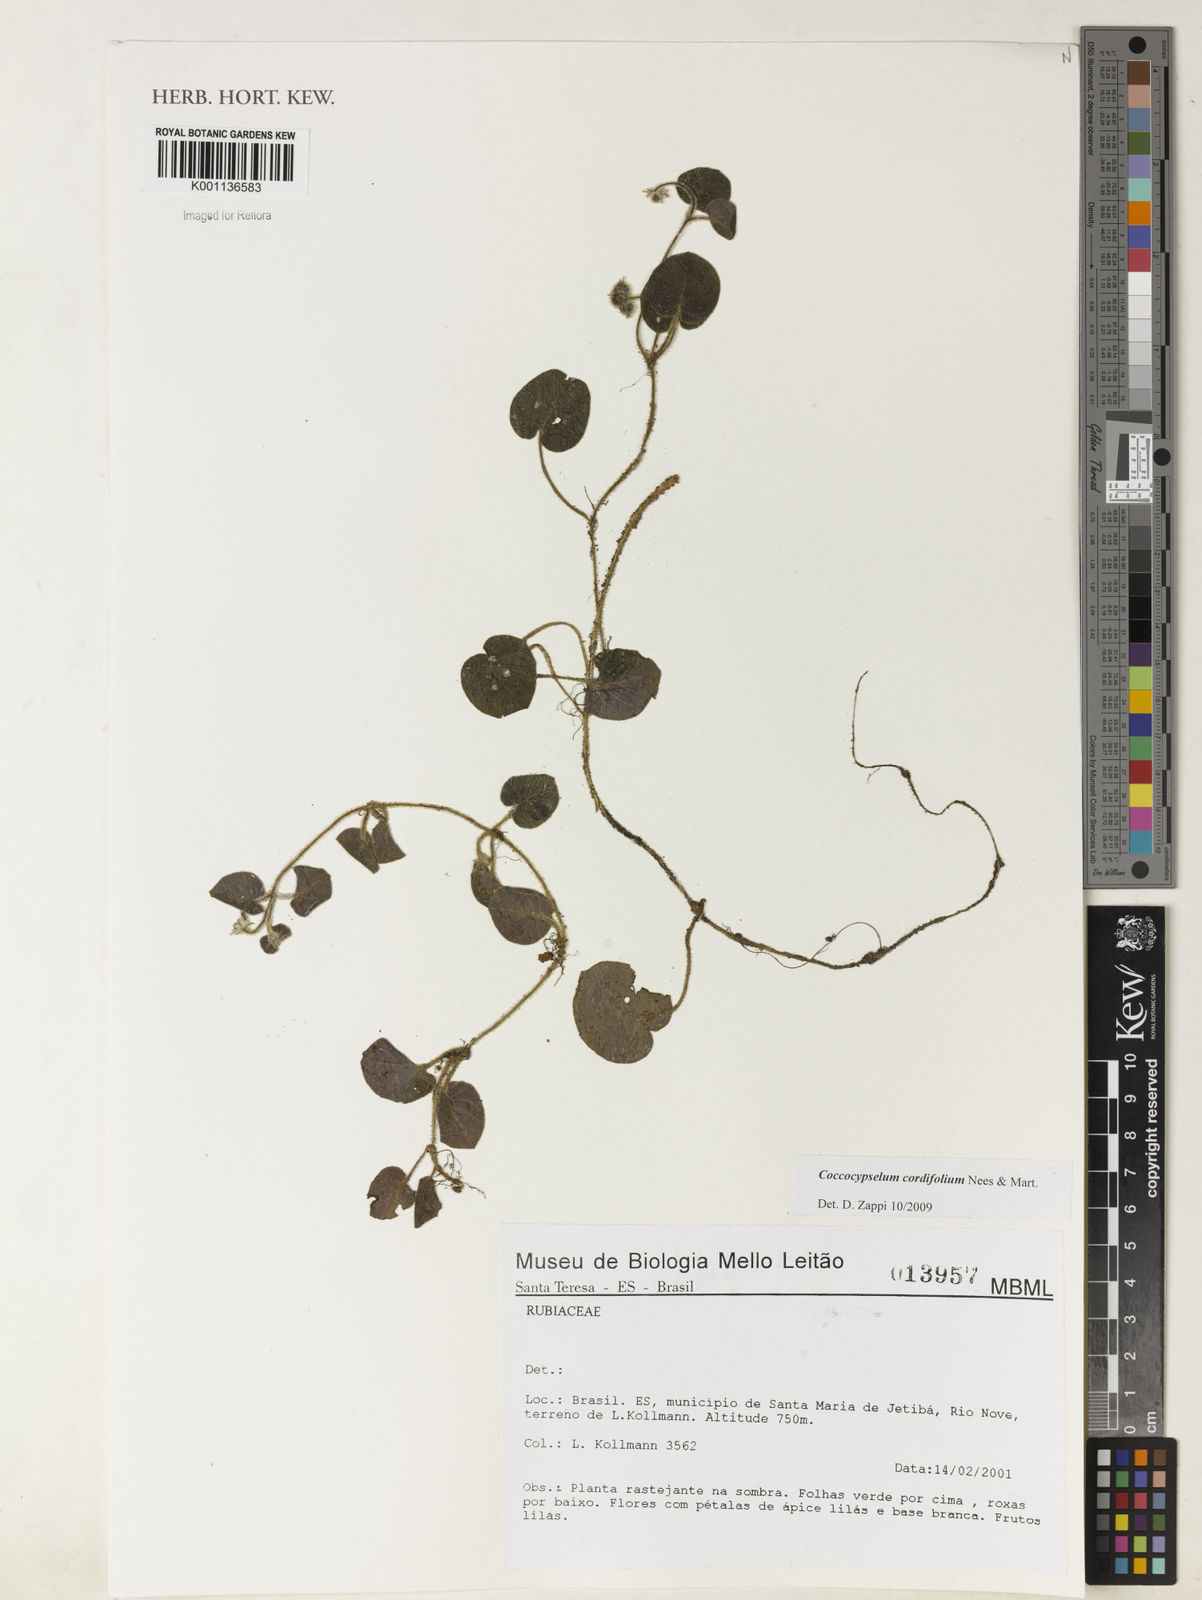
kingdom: Plantae
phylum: Tracheophyta
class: Magnoliopsida
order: Gentianales
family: Rubiaceae
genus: Coccocypselum
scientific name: Coccocypselum cordifolium
